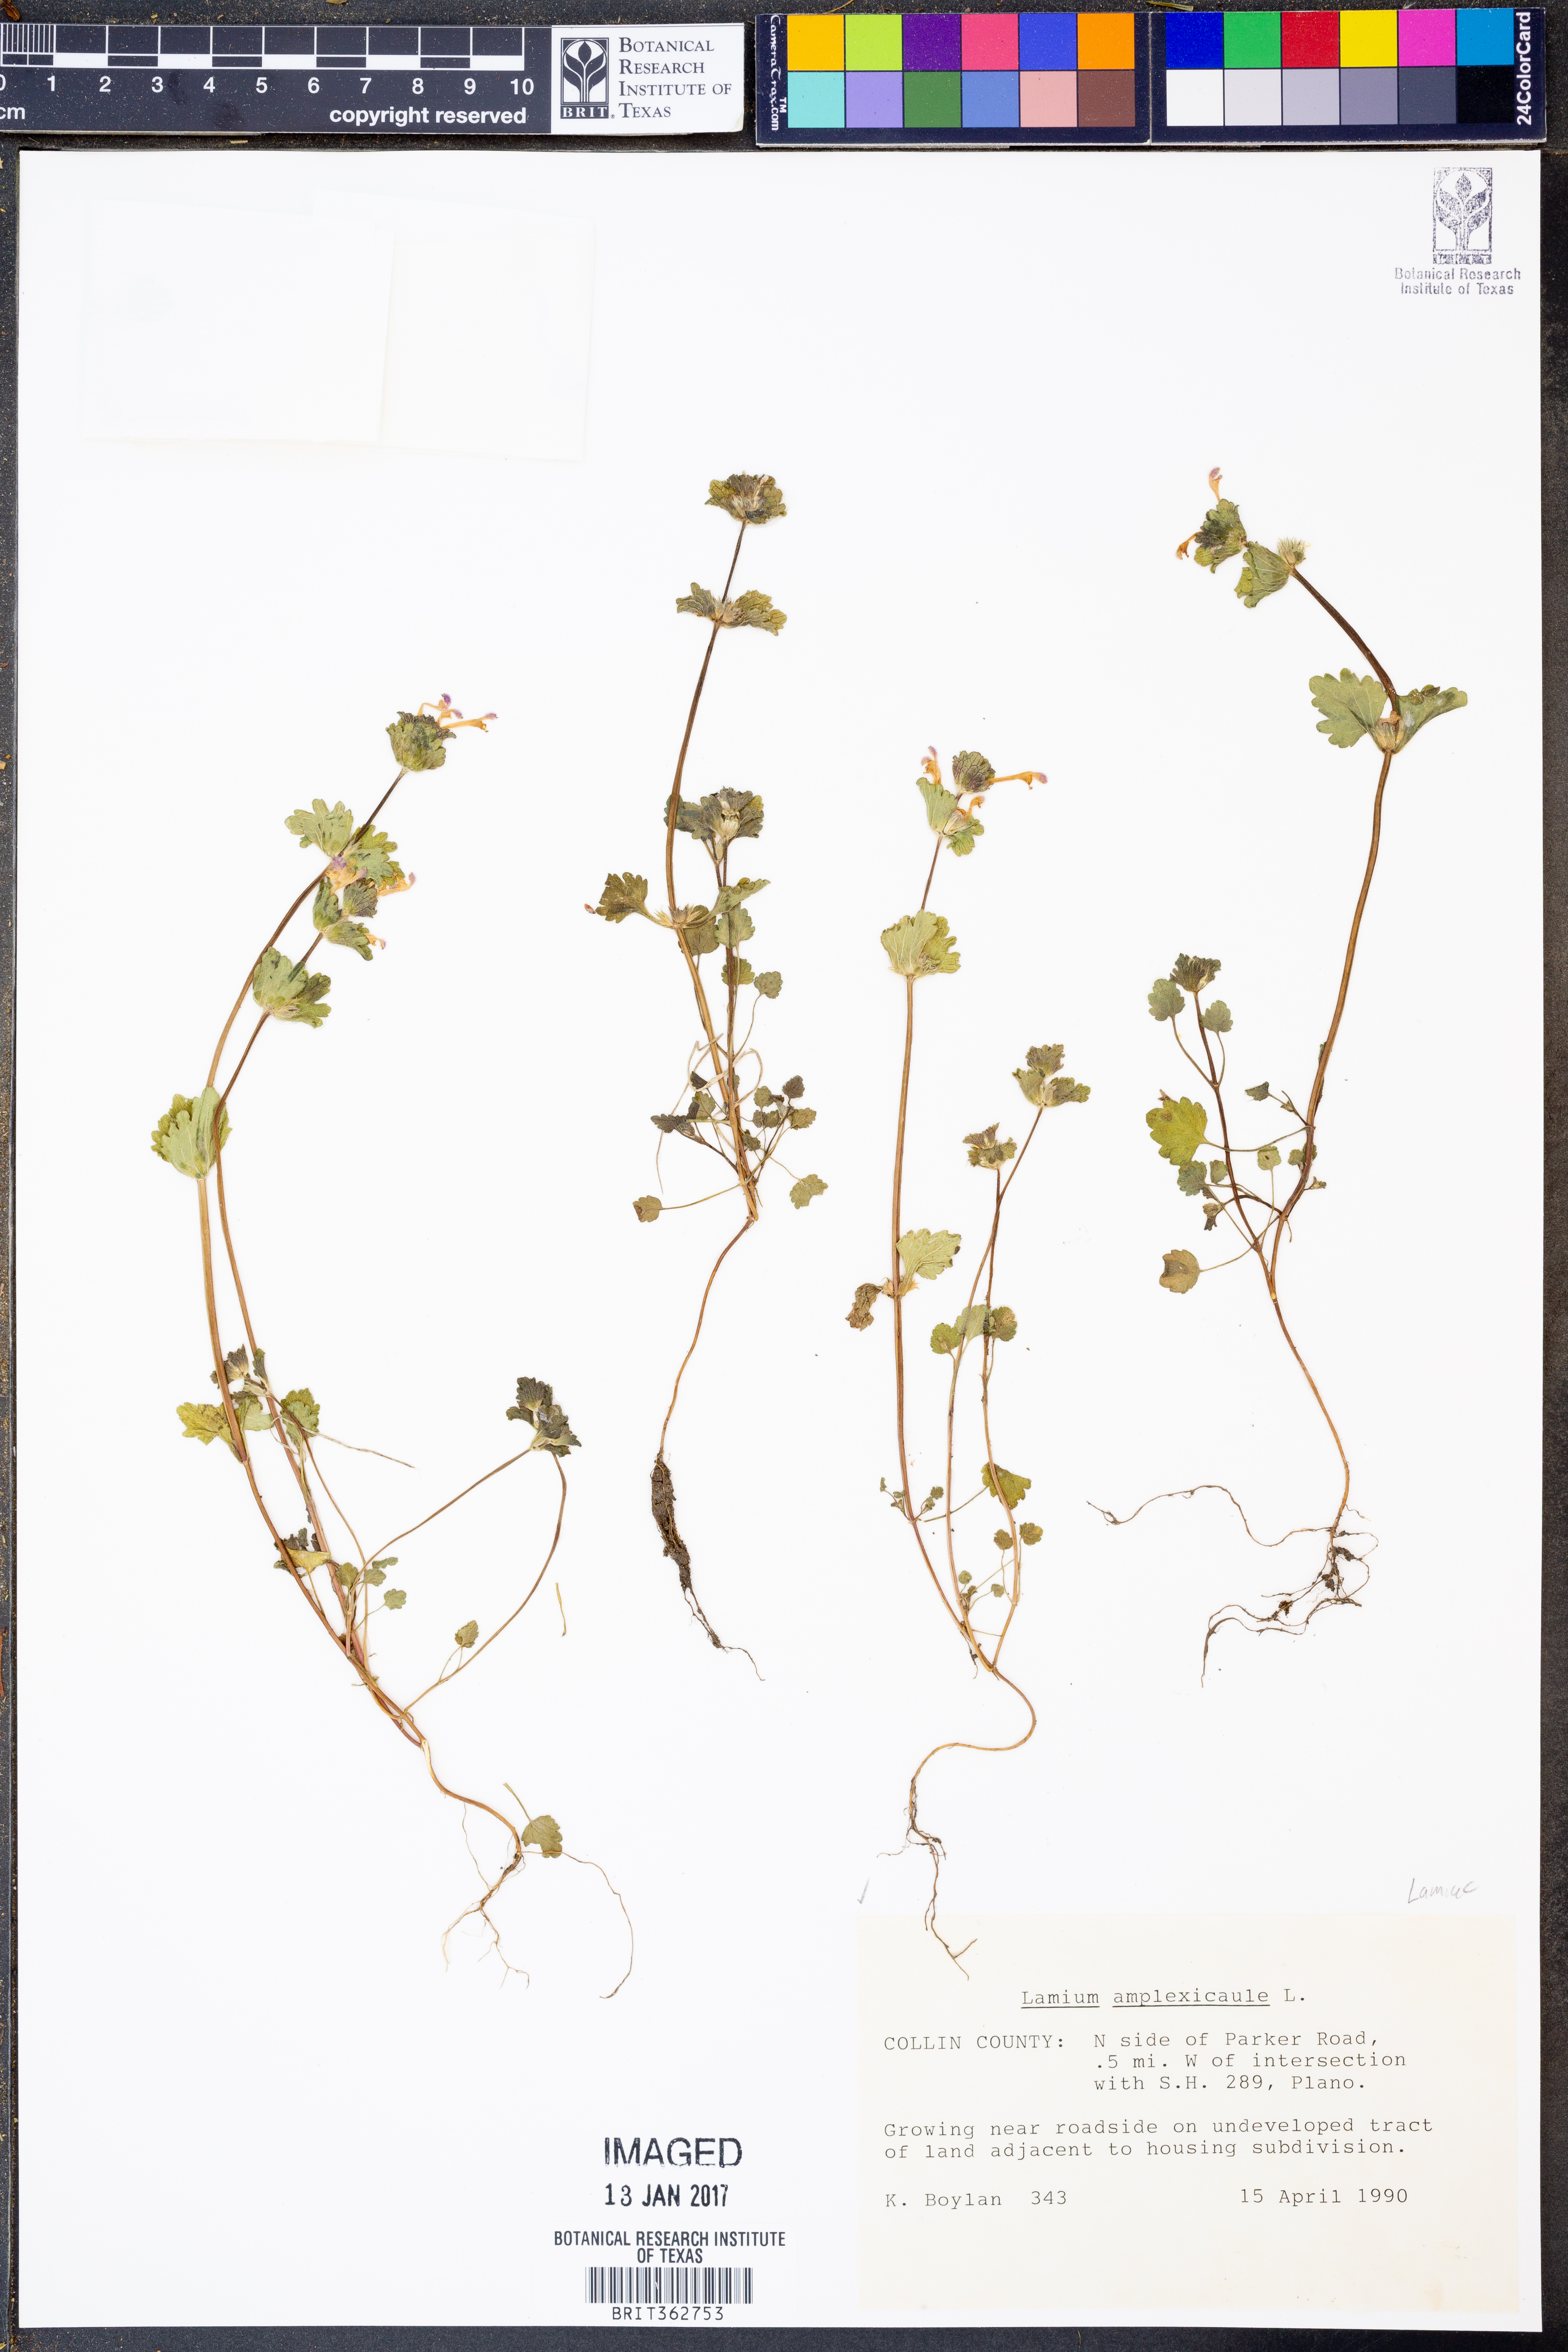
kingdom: Plantae
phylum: Tracheophyta
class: Magnoliopsida
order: Lamiales
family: Lamiaceae
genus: Lamium
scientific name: Lamium amplexicaule
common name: Henbit dead-nettle
